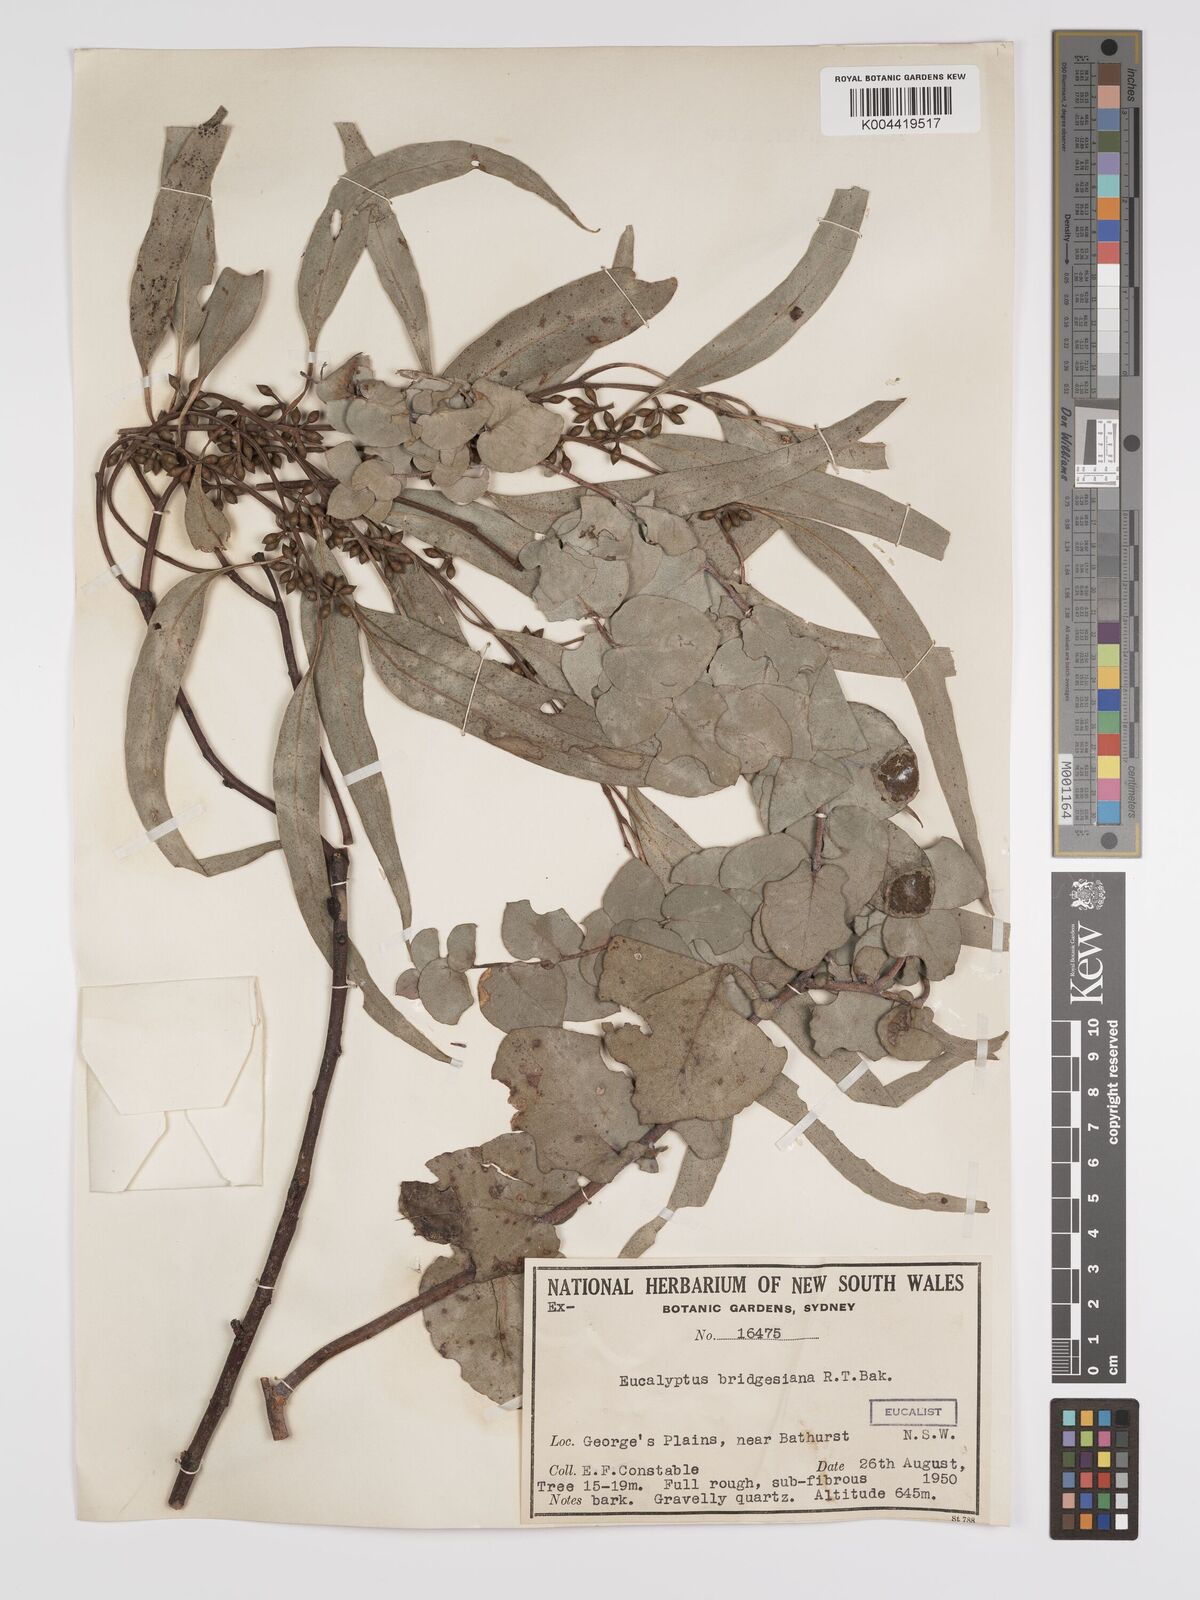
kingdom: Plantae
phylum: Tracheophyta
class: Magnoliopsida
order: Myrtales
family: Myrtaceae
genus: Eucalyptus
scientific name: Eucalyptus ovata
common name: Black-gum
